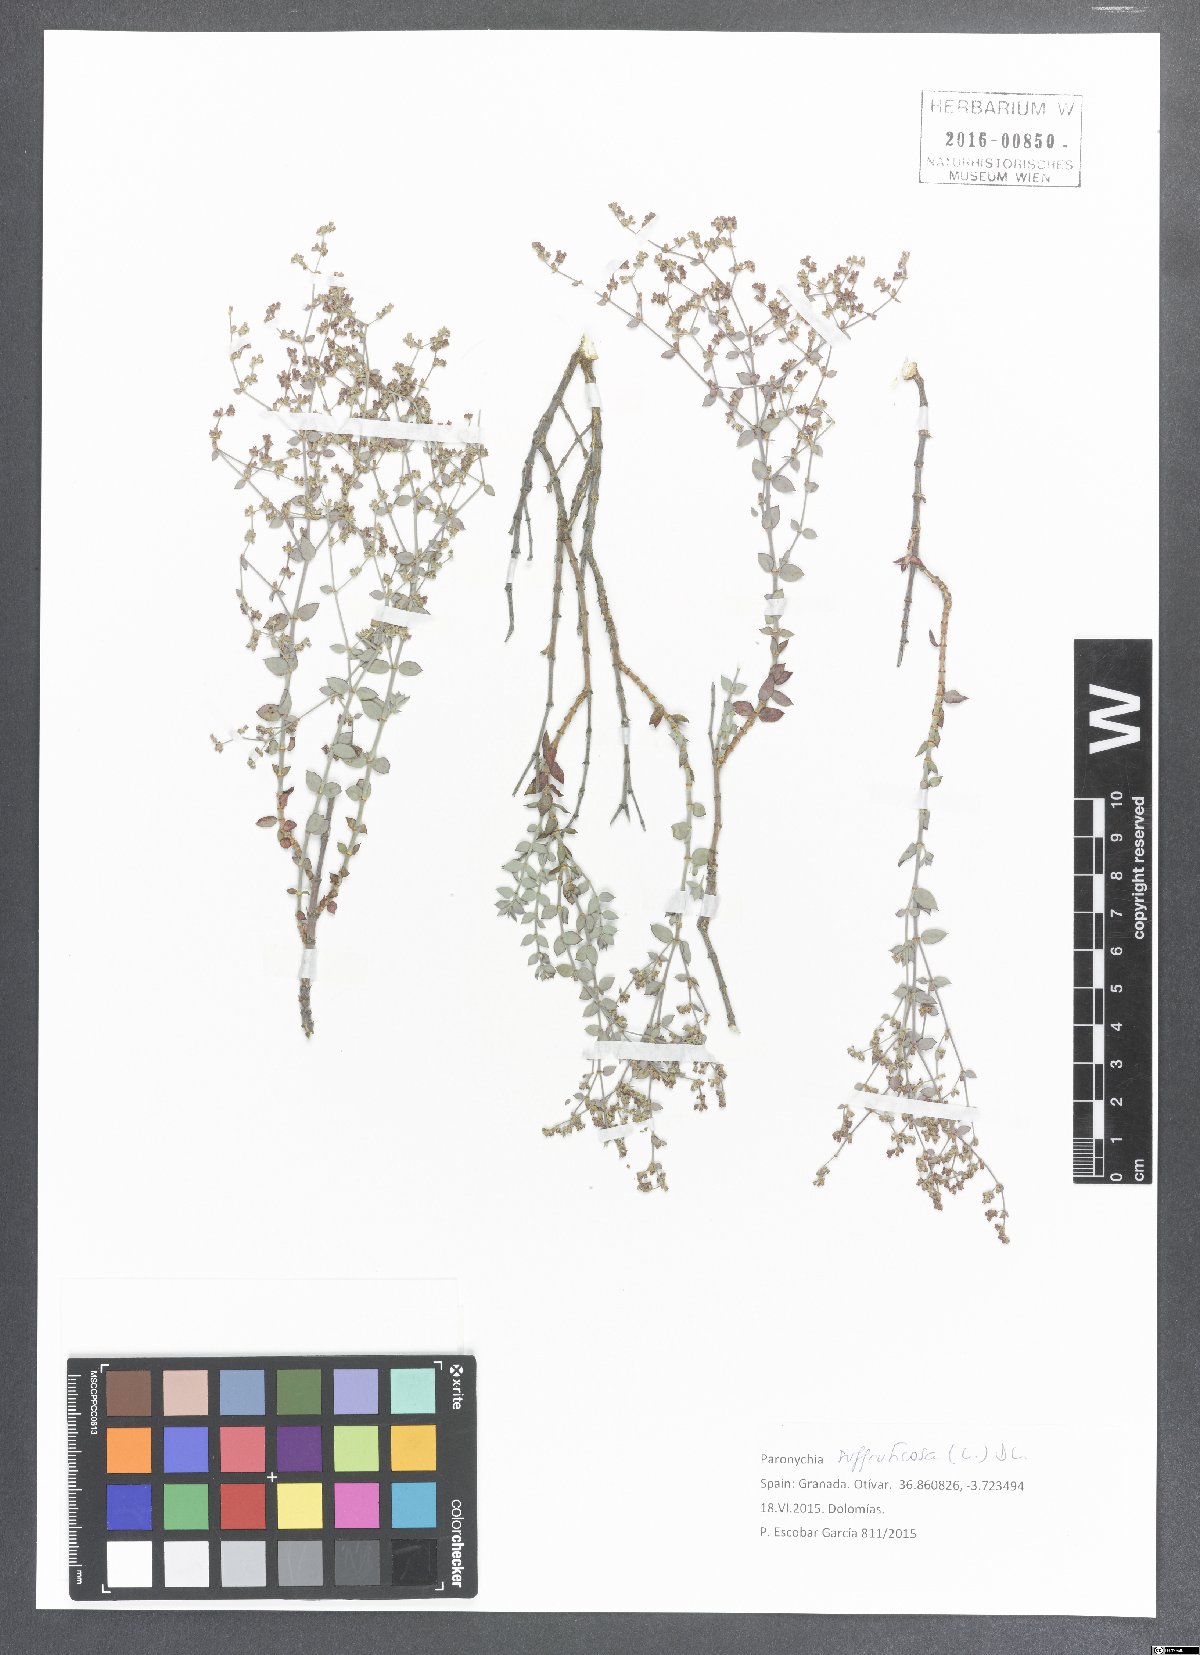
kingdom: Plantae
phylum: Tracheophyta
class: Magnoliopsida
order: Caryophyllales
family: Caryophyllaceae
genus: Paronychia
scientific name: Paronychia suffruticosa
